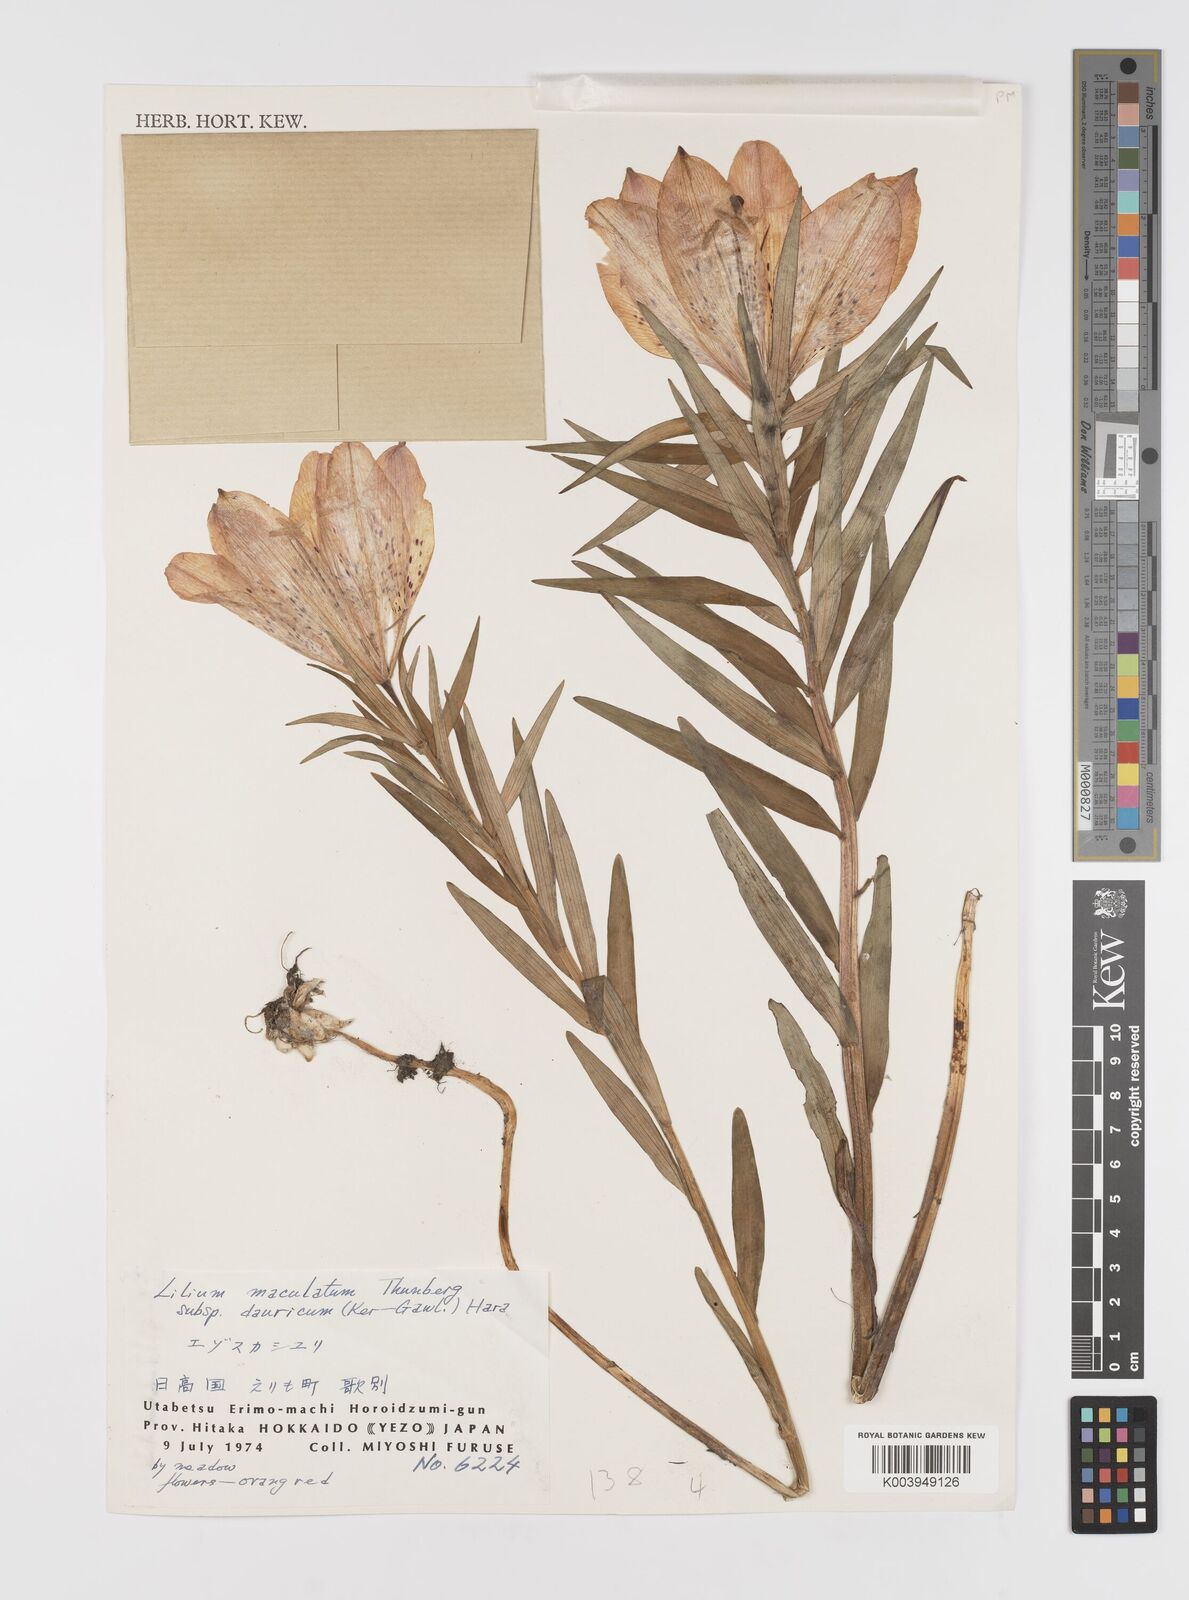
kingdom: Plantae
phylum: Tracheophyta
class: Liliopsida
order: Liliales
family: Liliaceae
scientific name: Liliaceae
